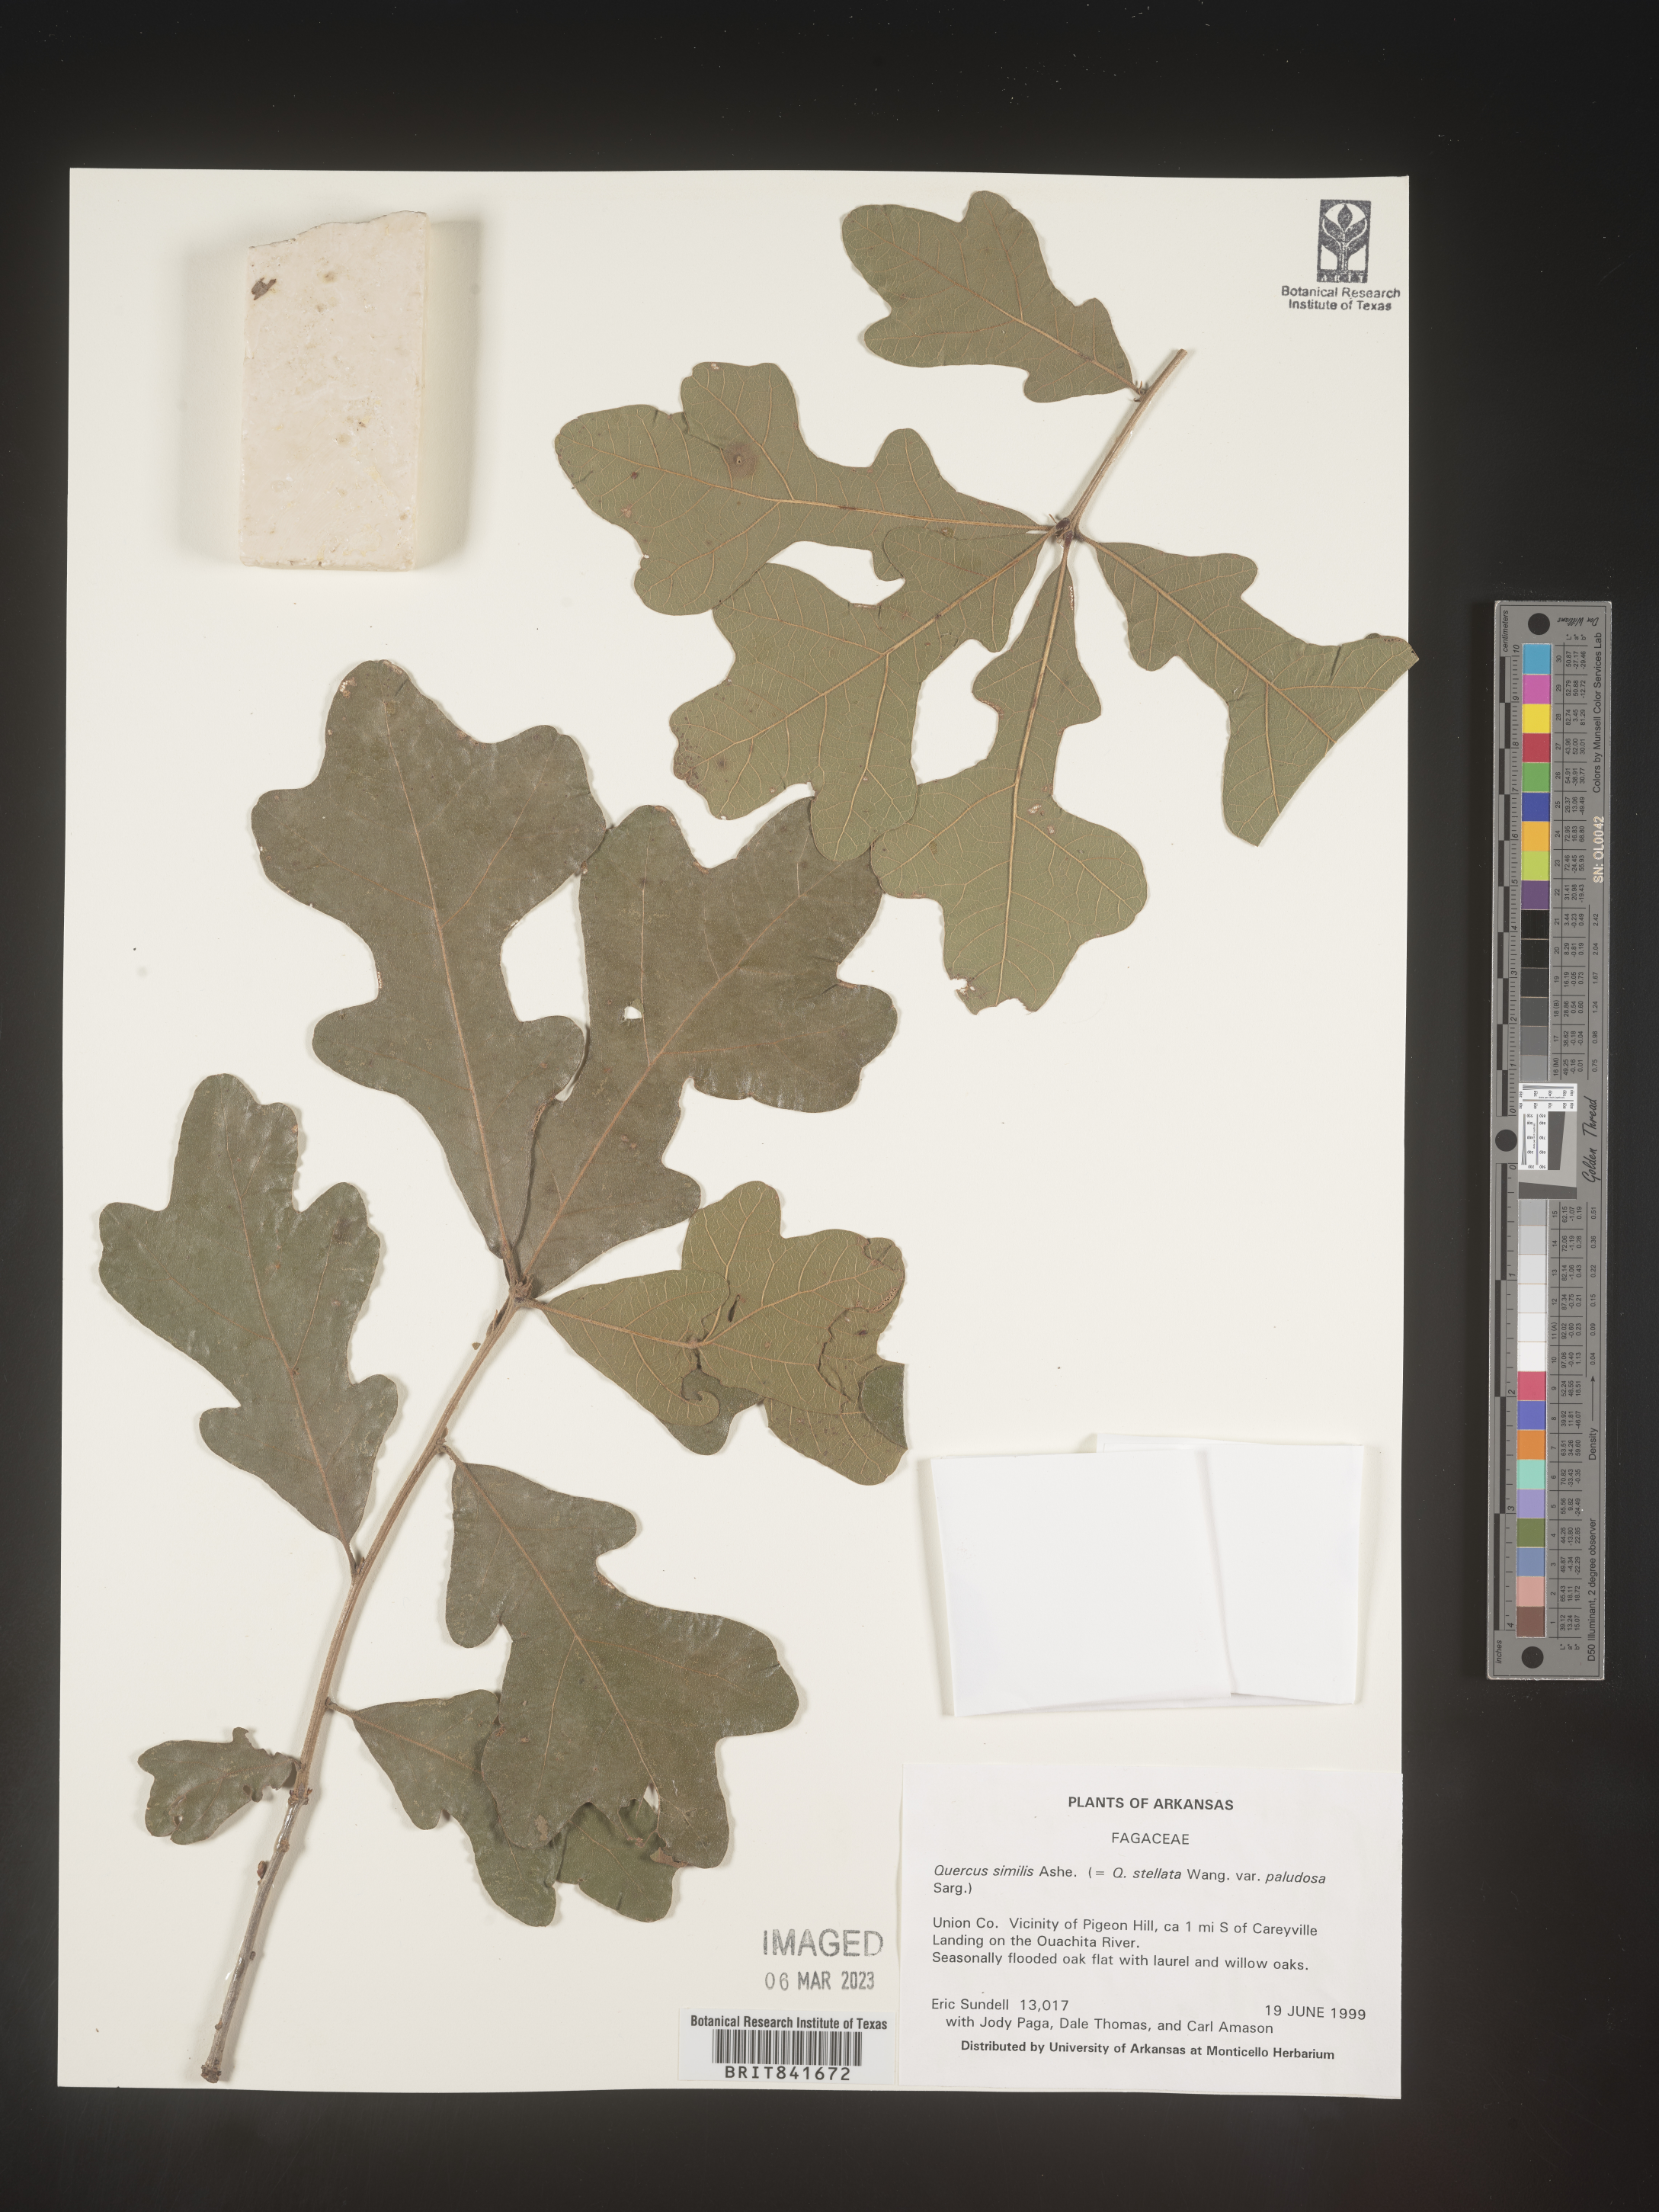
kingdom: Plantae
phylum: Tracheophyta
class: Magnoliopsida
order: Fagales
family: Fagaceae
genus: Quercus
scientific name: Quercus
